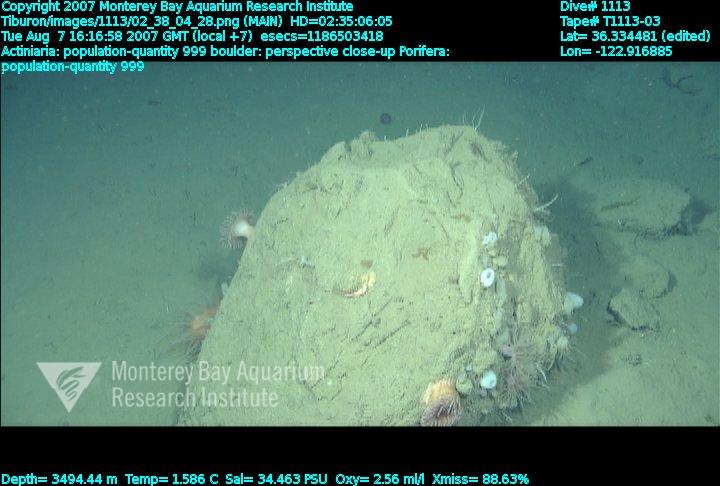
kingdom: Animalia
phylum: Porifera
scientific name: Porifera
